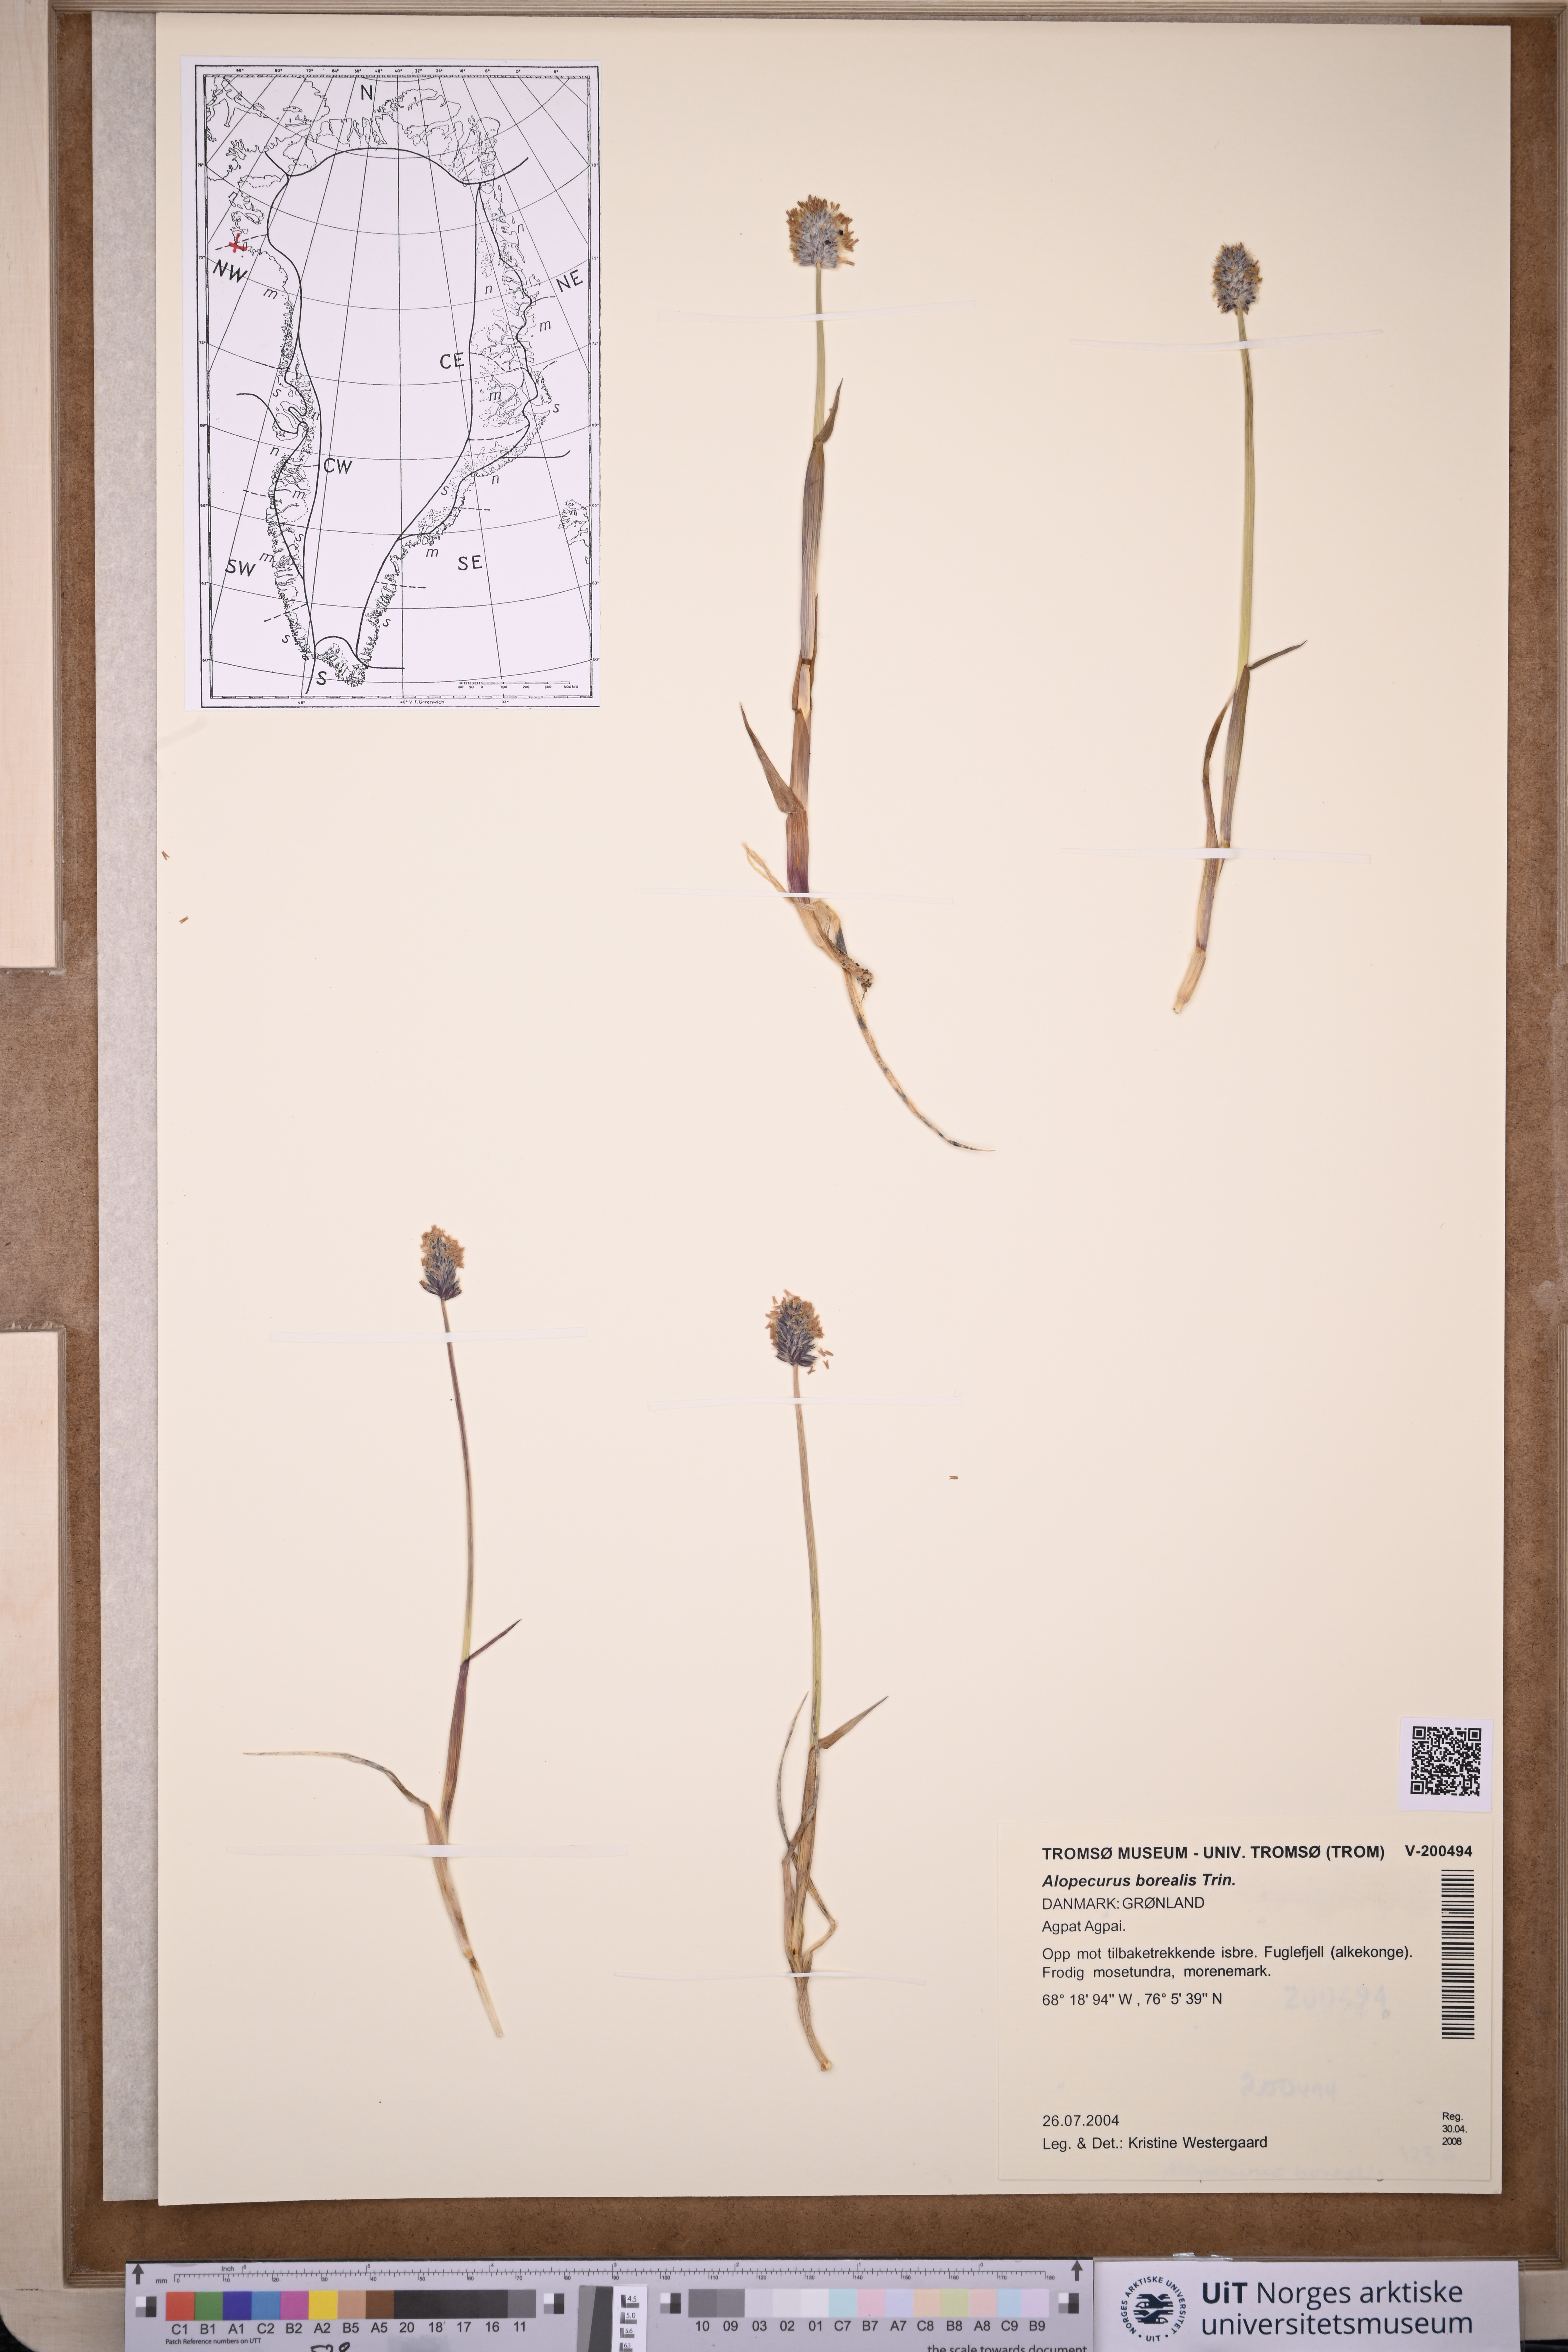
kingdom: Plantae
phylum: Tracheophyta
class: Liliopsida
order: Poales
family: Poaceae
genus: Alopecurus
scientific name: Alopecurus magellanicus
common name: Alpine foxtail
